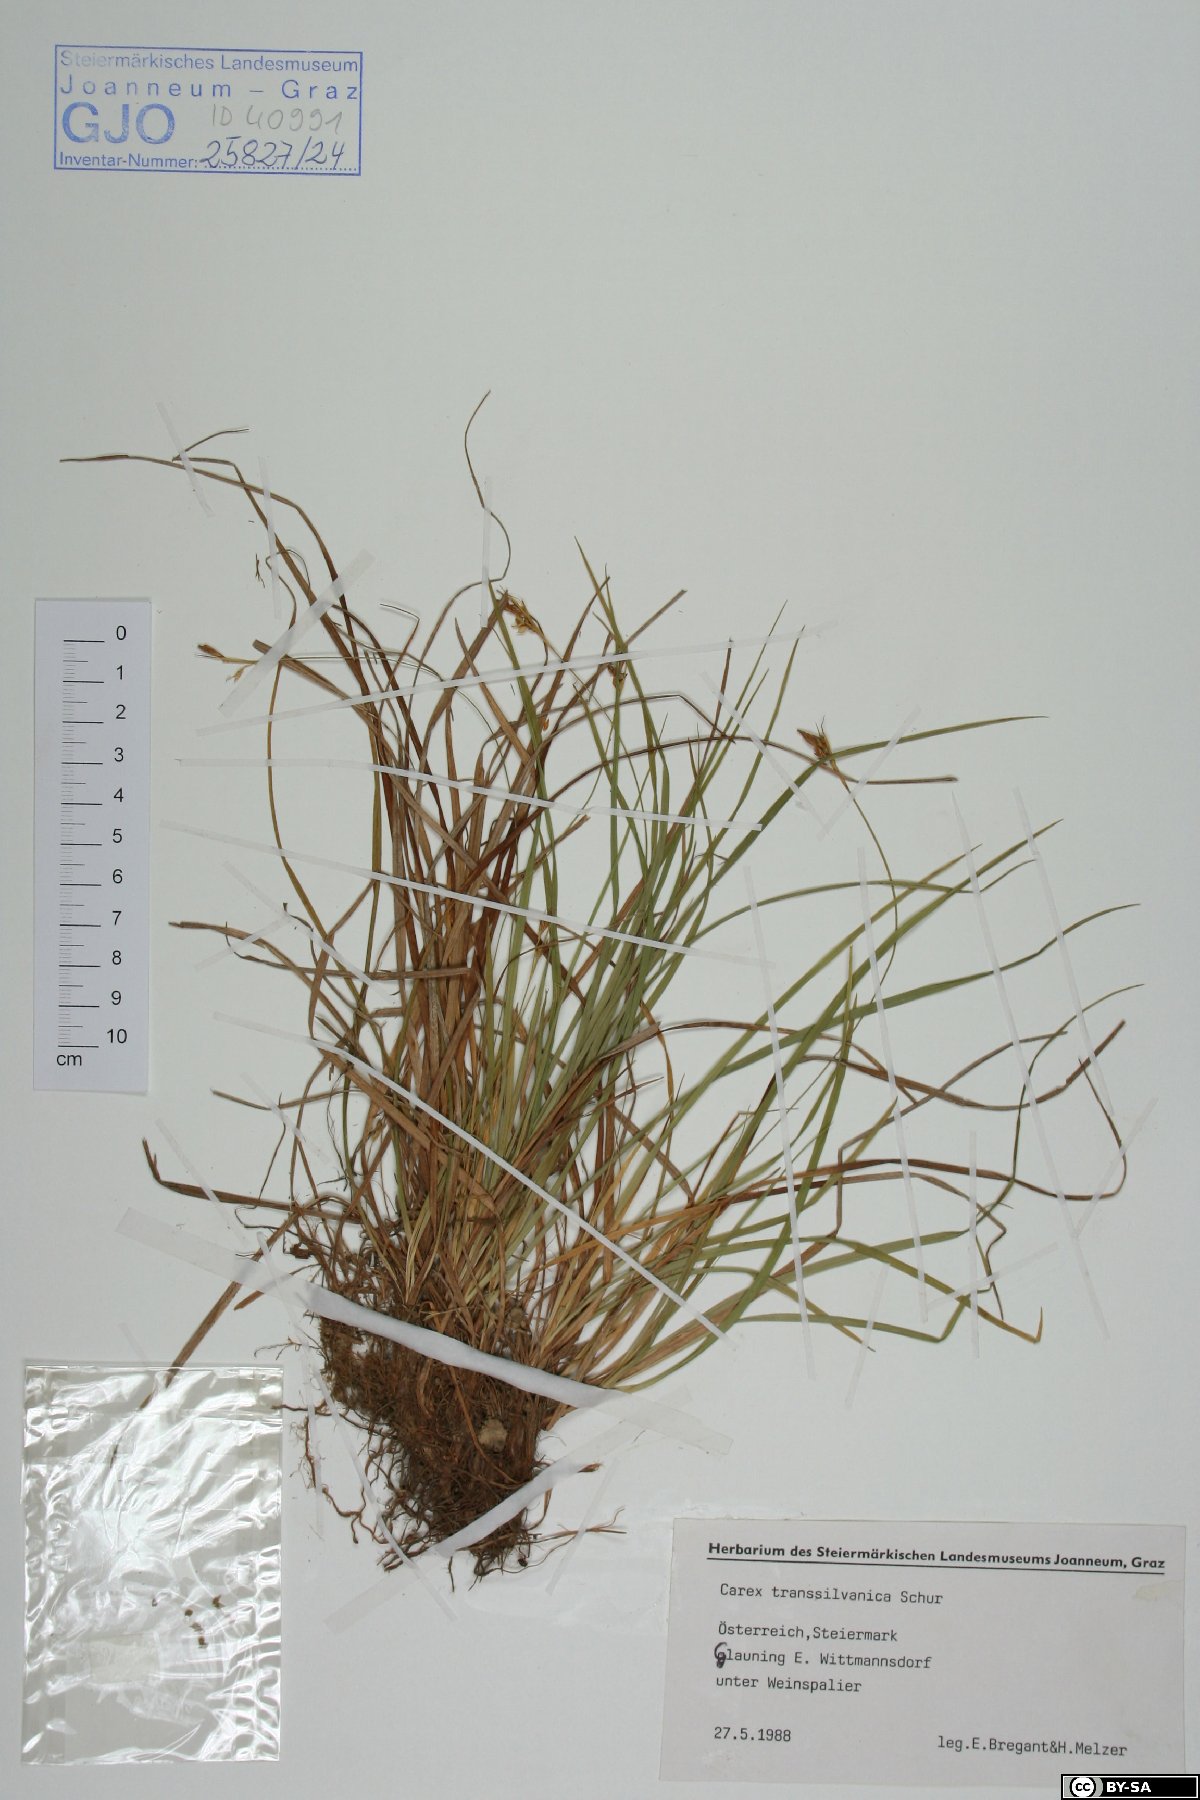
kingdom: Plantae
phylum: Tracheophyta
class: Liliopsida
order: Poales
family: Cyperaceae
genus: Carex
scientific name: Carex depressa
